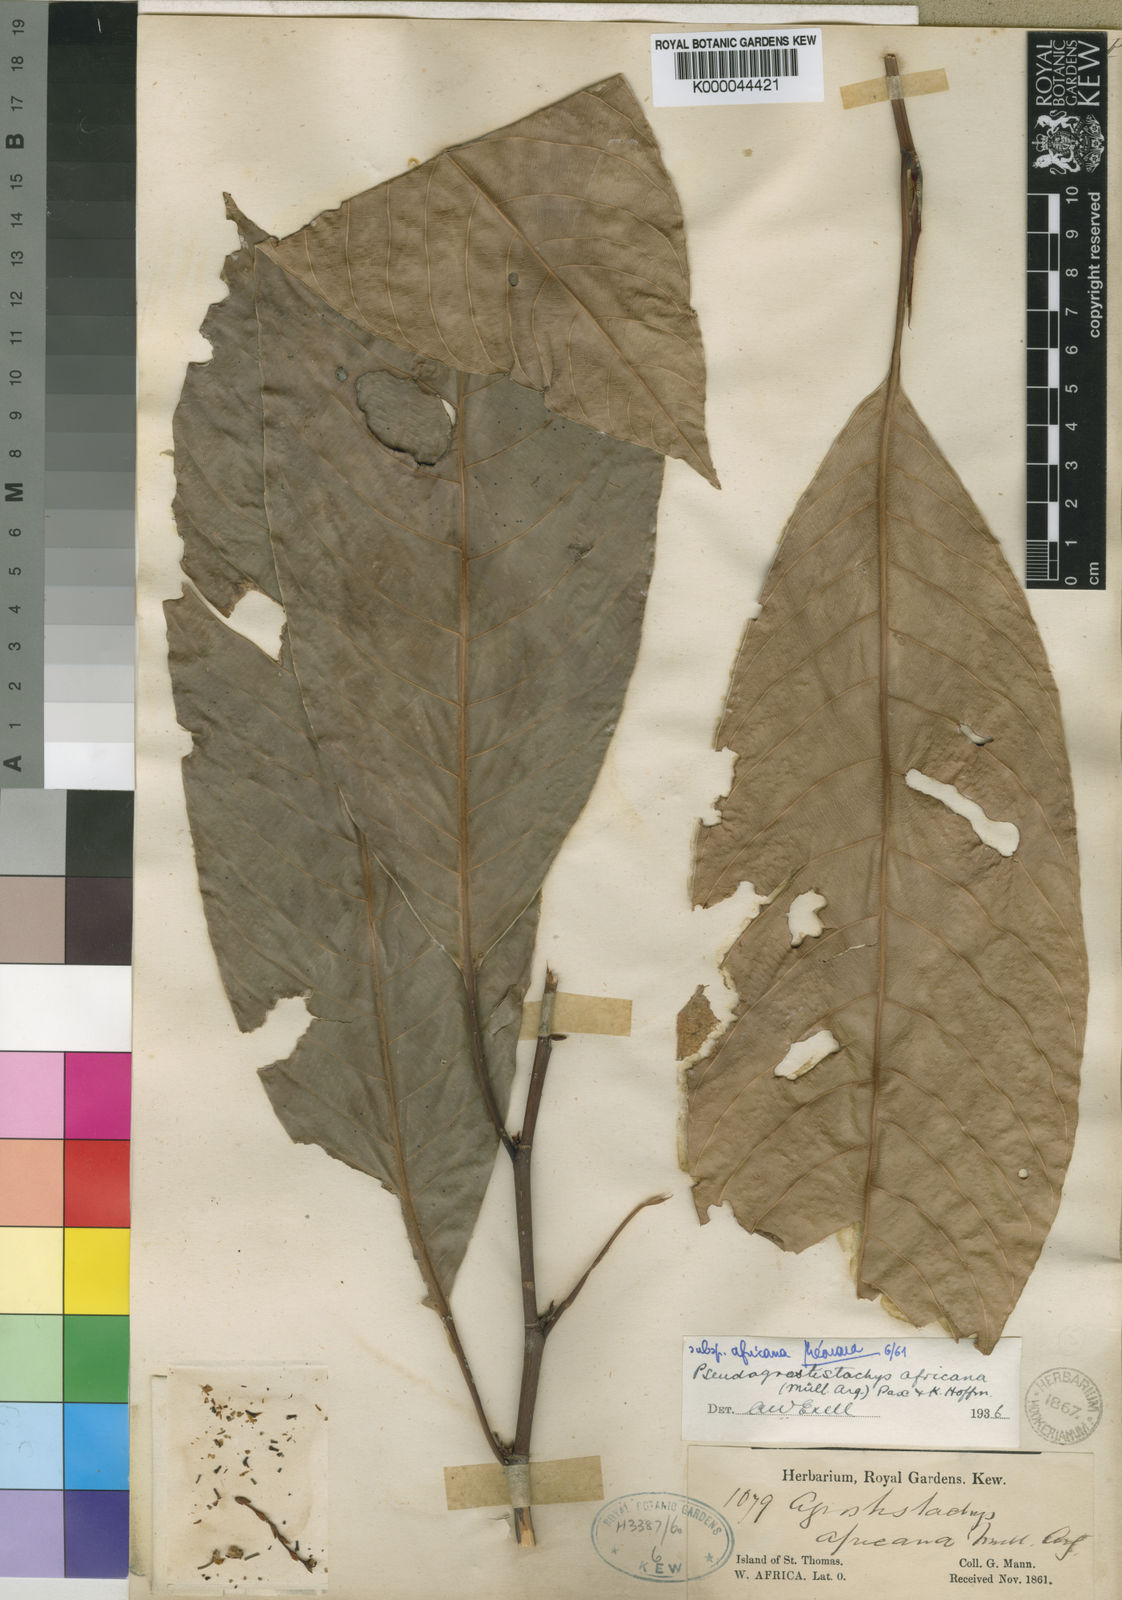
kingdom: Plantae
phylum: Tracheophyta
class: Magnoliopsida
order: Malpighiales
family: Euphorbiaceae
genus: Pseudagrostistachys
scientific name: Pseudagrostistachys africana
